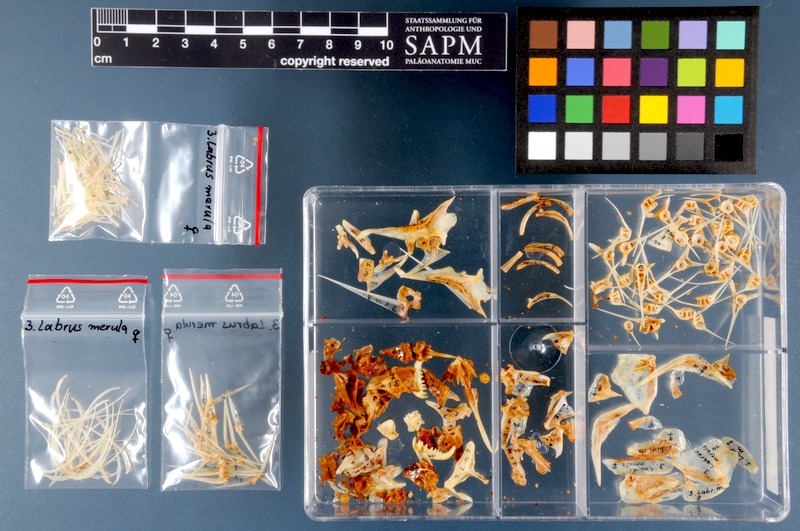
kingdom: Animalia
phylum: Chordata
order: Perciformes
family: Labridae
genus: Labrus
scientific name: Labrus merula
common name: Brown wrasse
